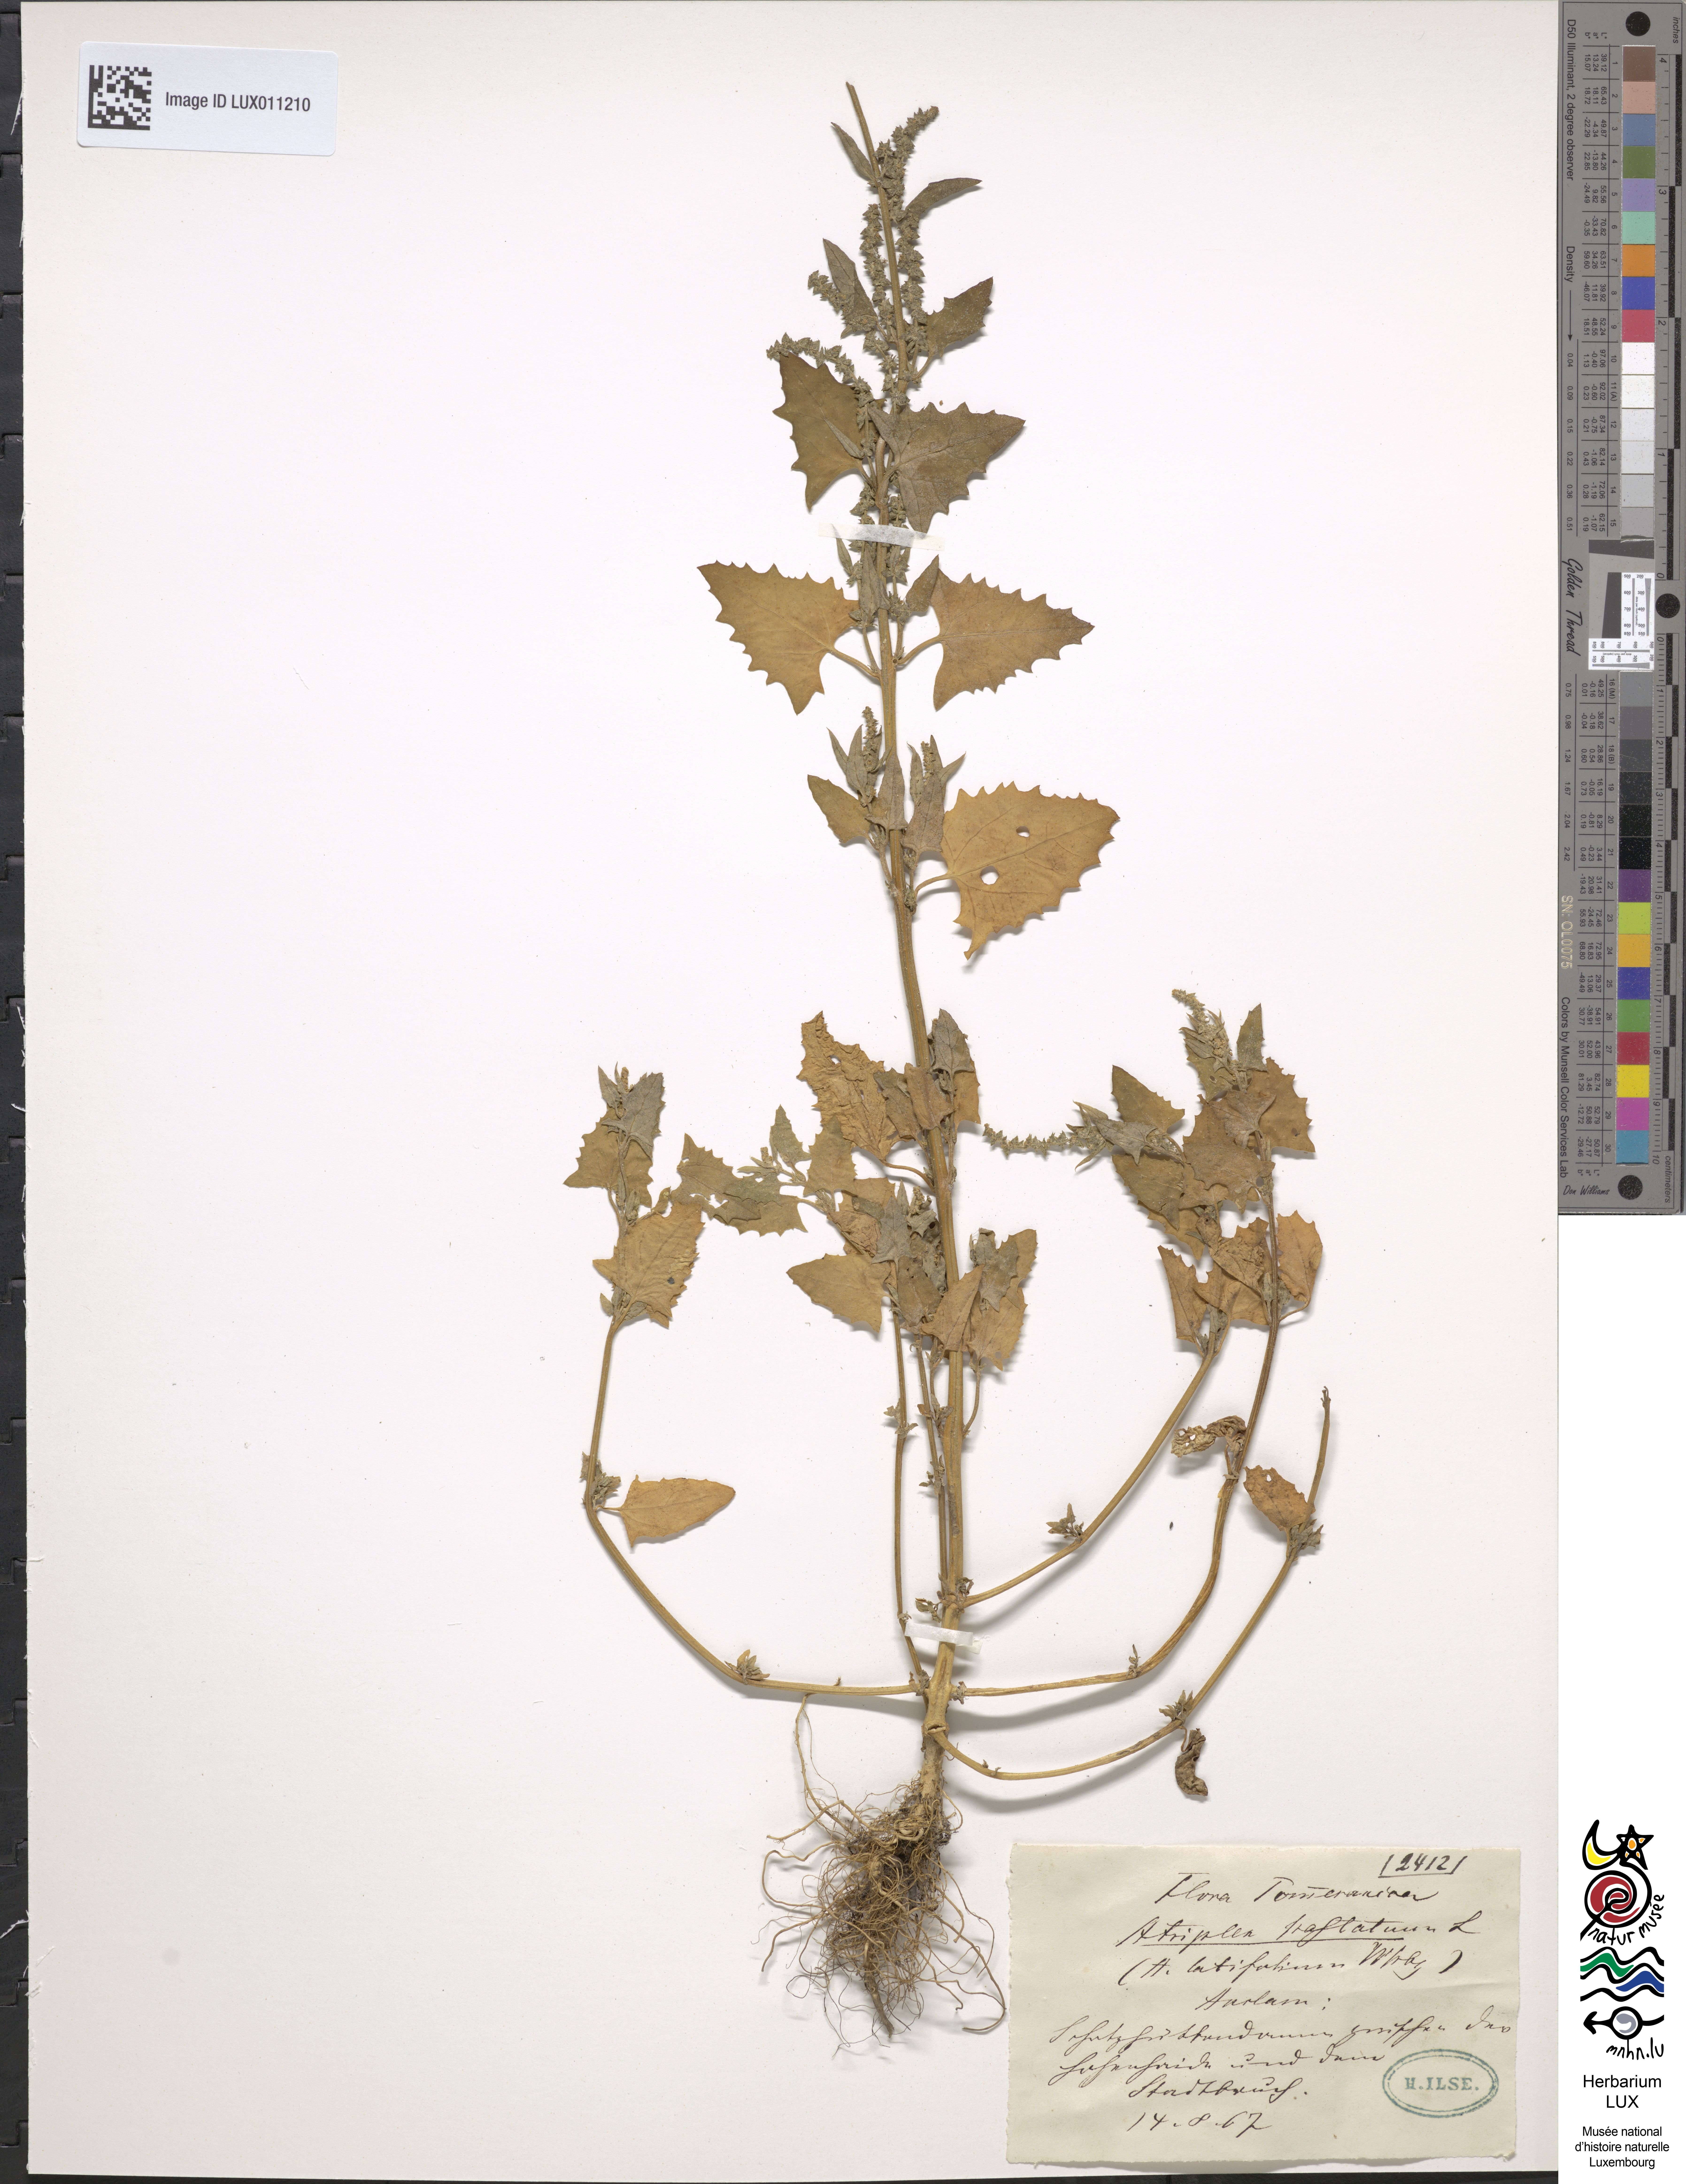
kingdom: Plantae
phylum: Tracheophyta
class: Magnoliopsida
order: Caryophyllales
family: Amaranthaceae
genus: Atriplex
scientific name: Atriplex calotheca
